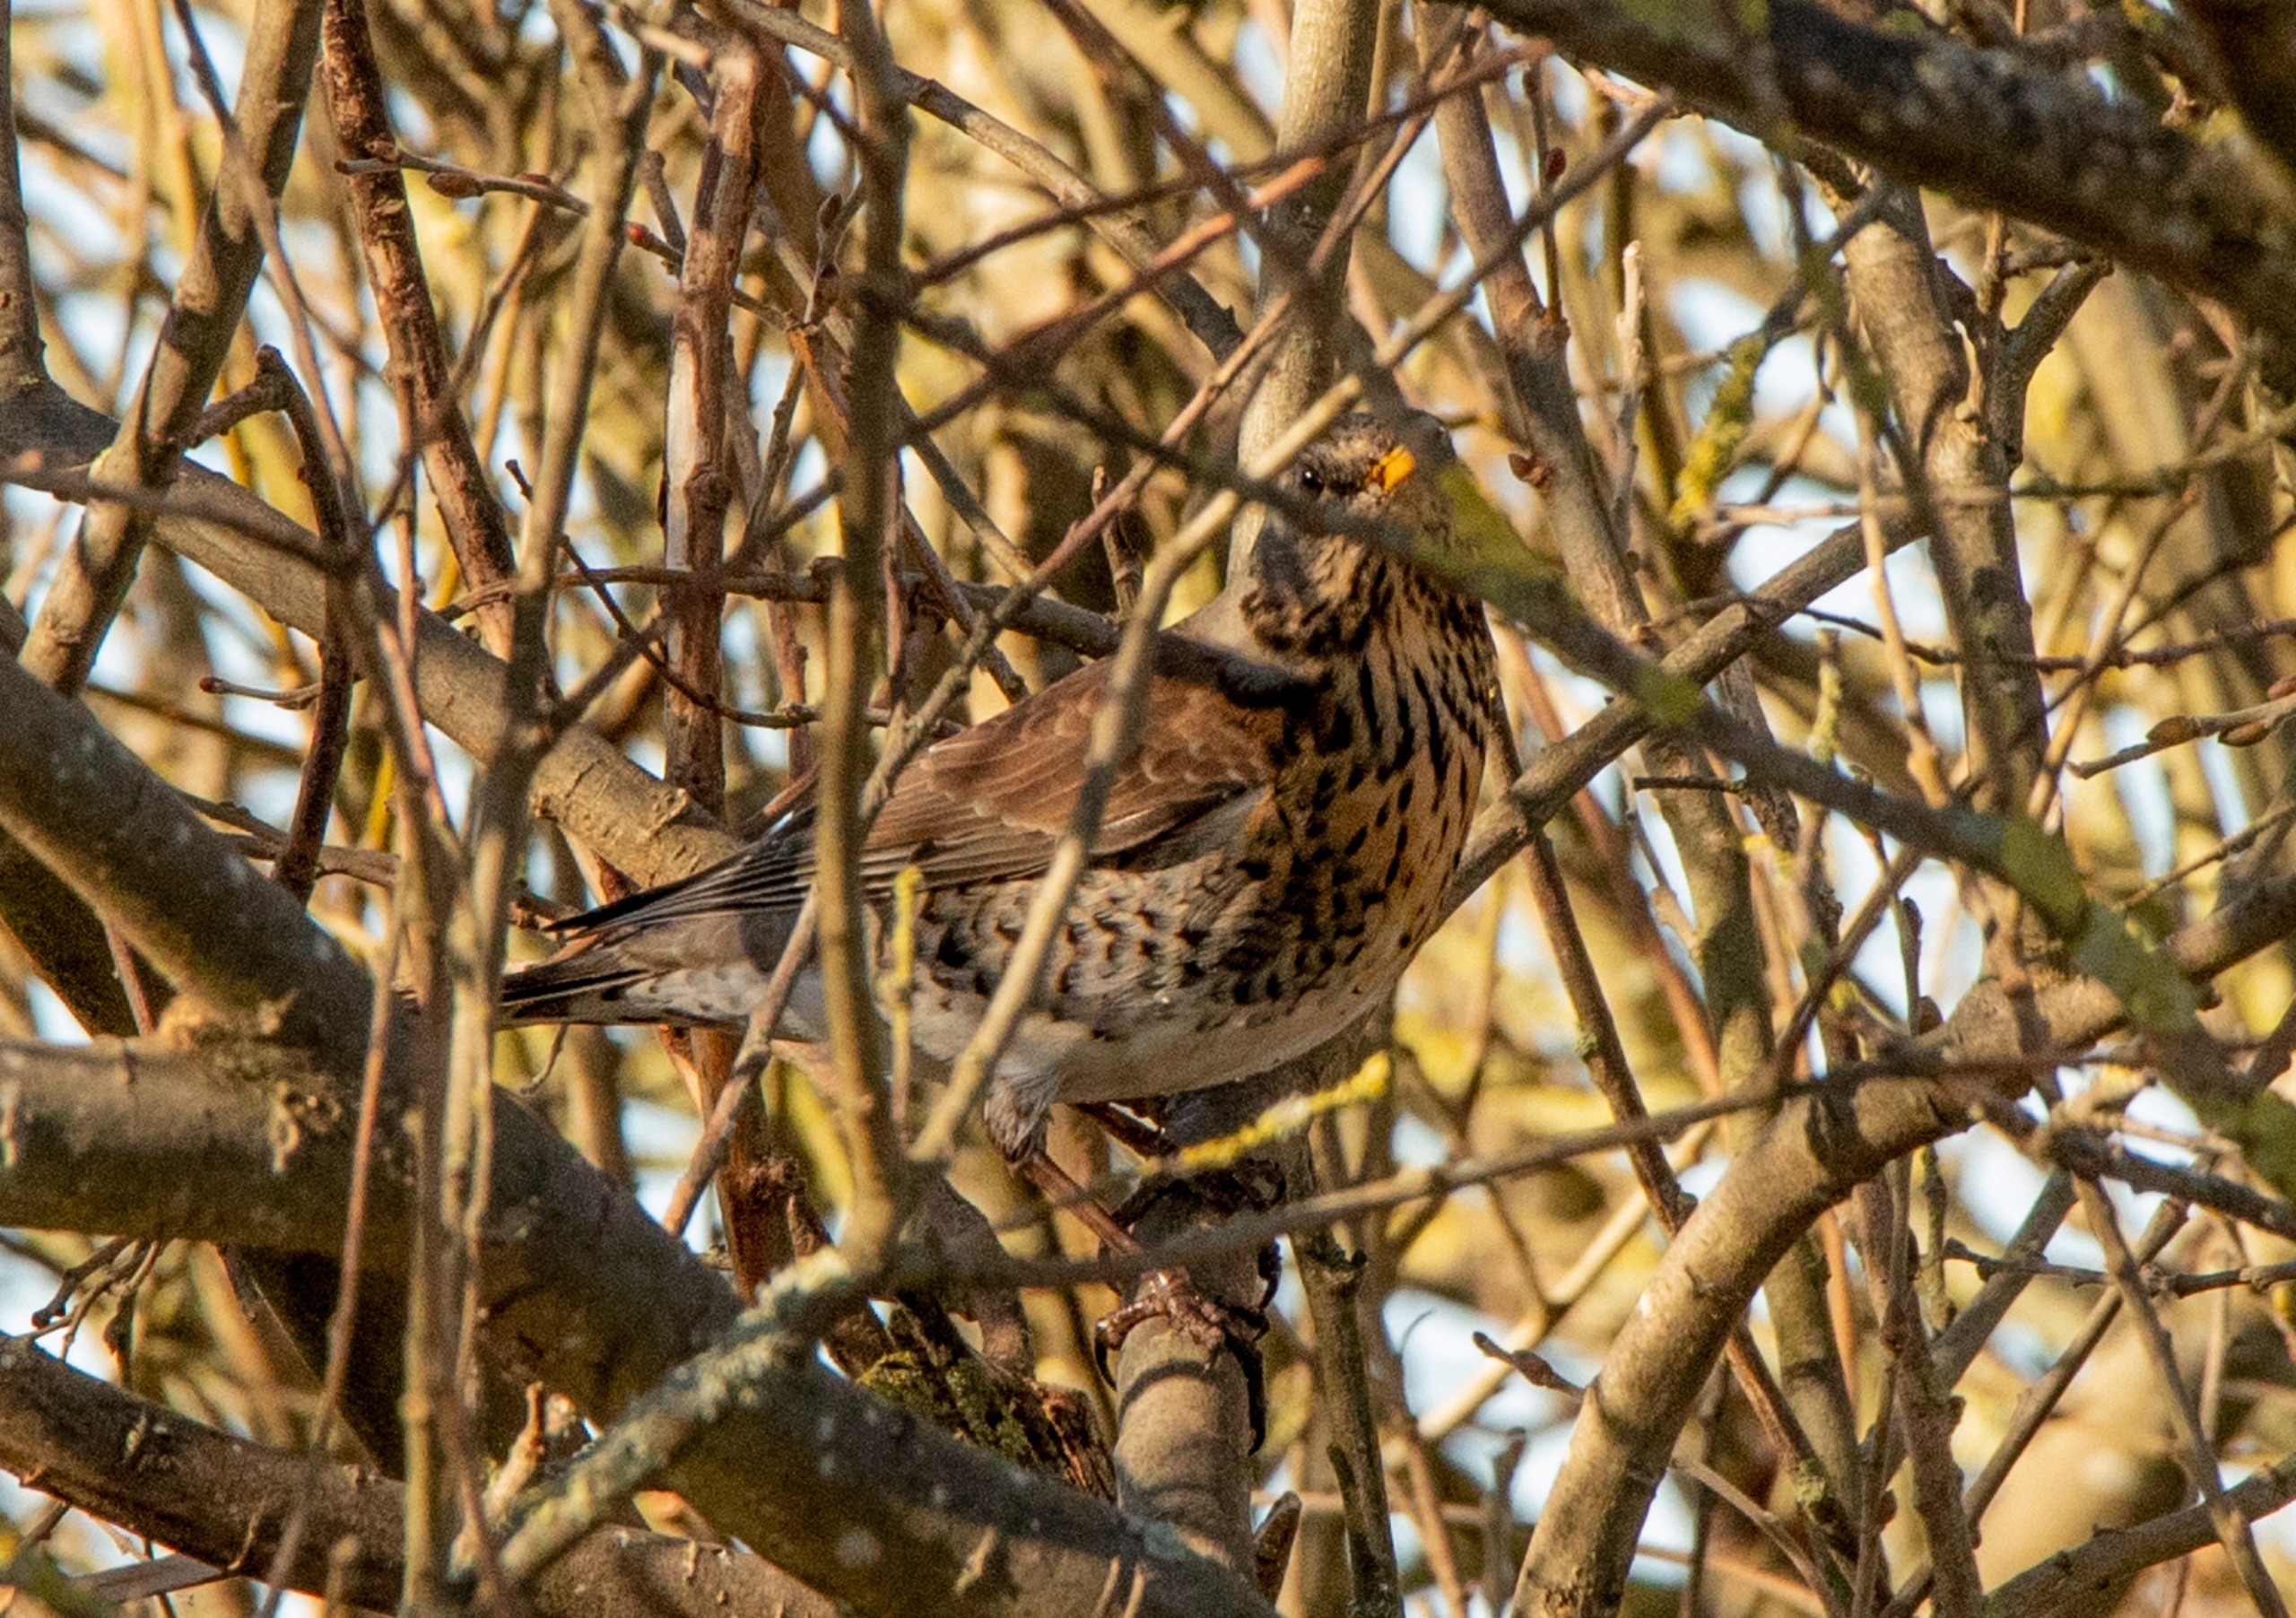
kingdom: Animalia
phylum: Chordata
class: Aves
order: Passeriformes
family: Turdidae
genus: Turdus
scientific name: Turdus pilaris
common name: Sjagger
